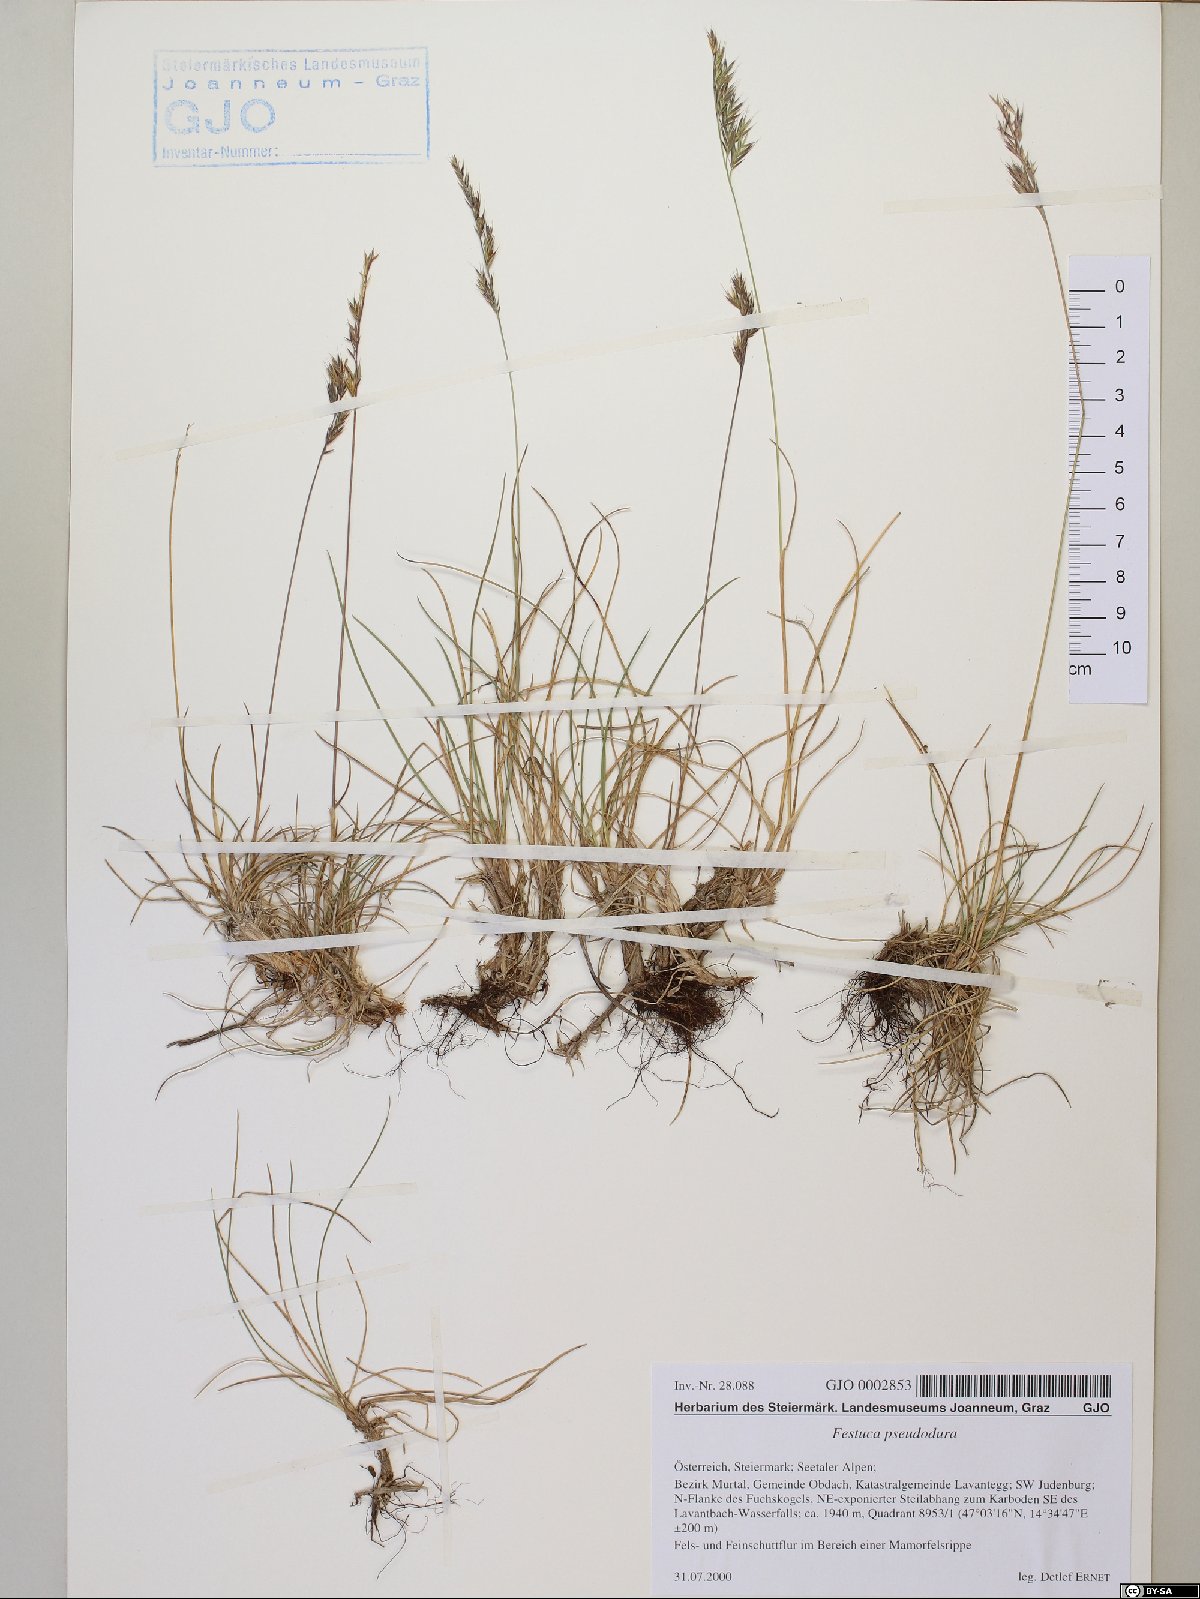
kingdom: Plantae
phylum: Tracheophyta
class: Liliopsida
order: Poales
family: Poaceae
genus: Festuca
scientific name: Festuca pseudodura
